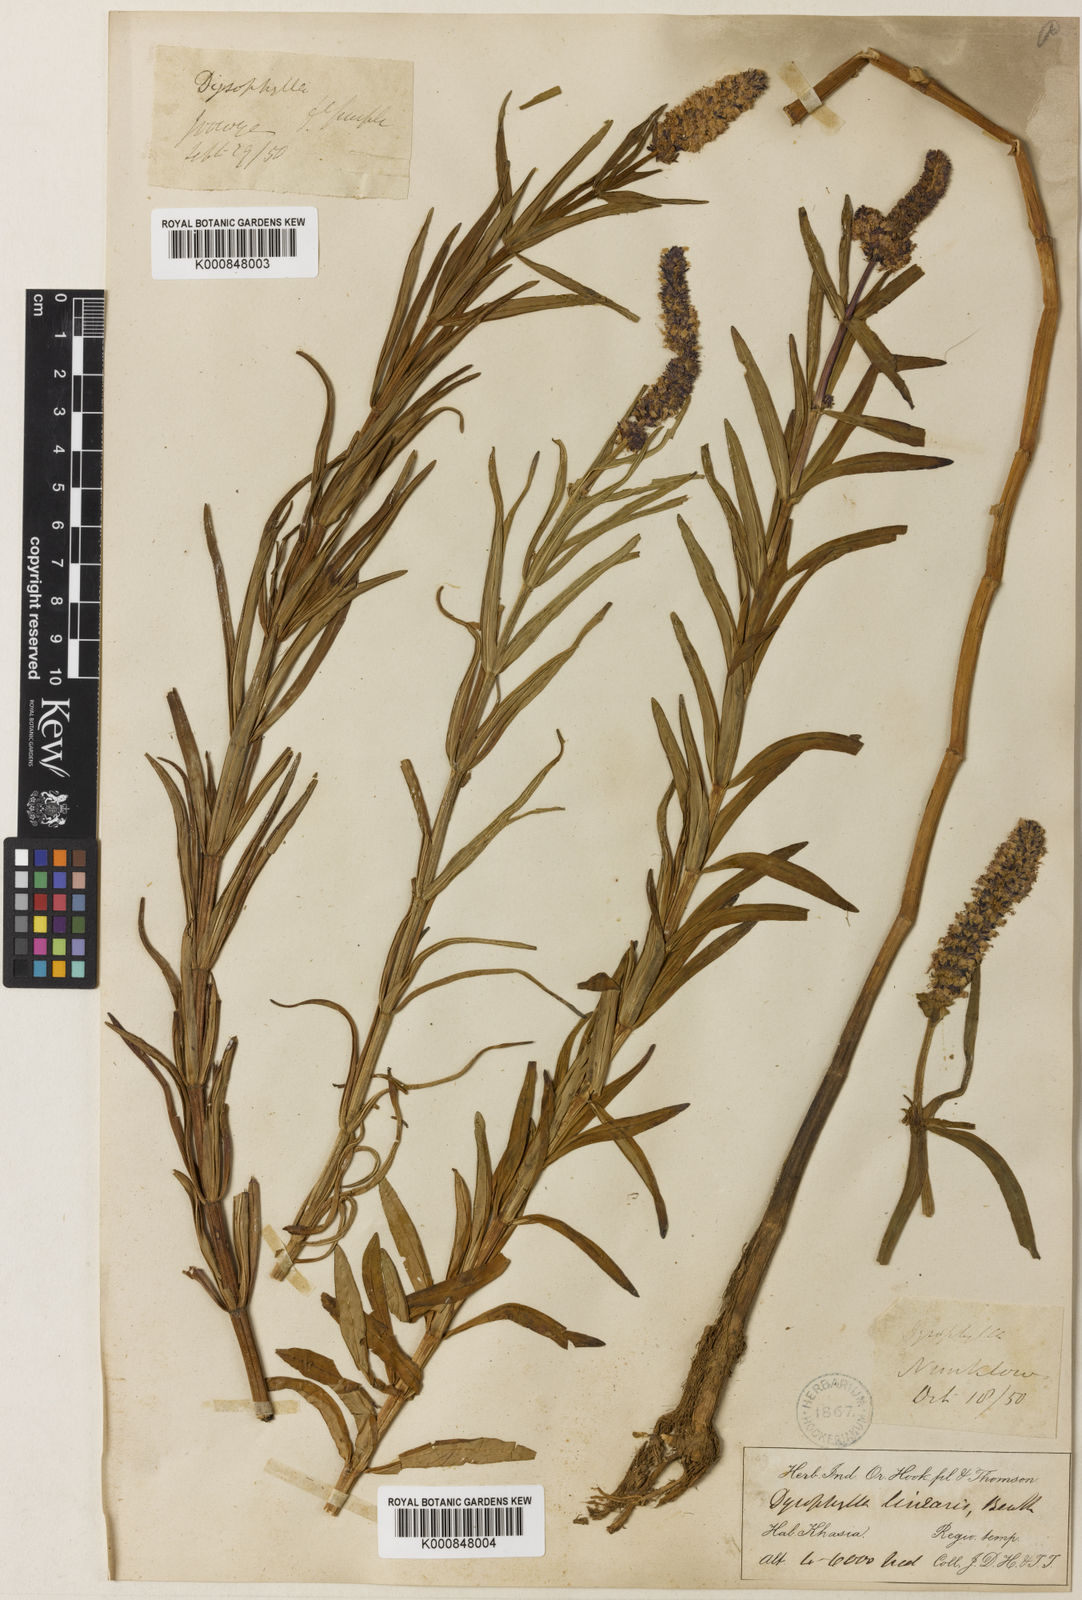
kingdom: Plantae
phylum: Tracheophyta
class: Magnoliopsida
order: Lamiales
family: Lamiaceae
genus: Pogostemon
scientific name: Pogostemon linearis
